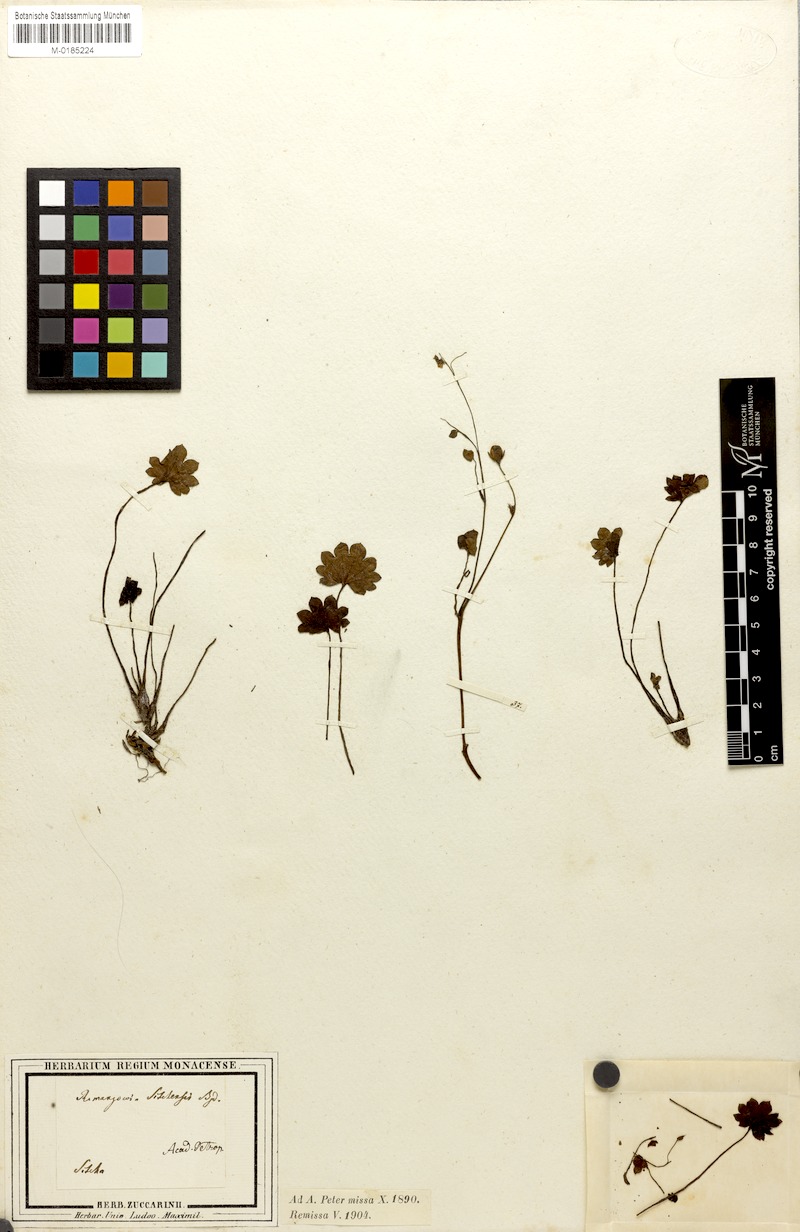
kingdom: Plantae
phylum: Tracheophyta
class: Magnoliopsida
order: Boraginales
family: Hydrophyllaceae
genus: Romanzoffia
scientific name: Romanzoffia sitchensis
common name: Sitka mistmaid
